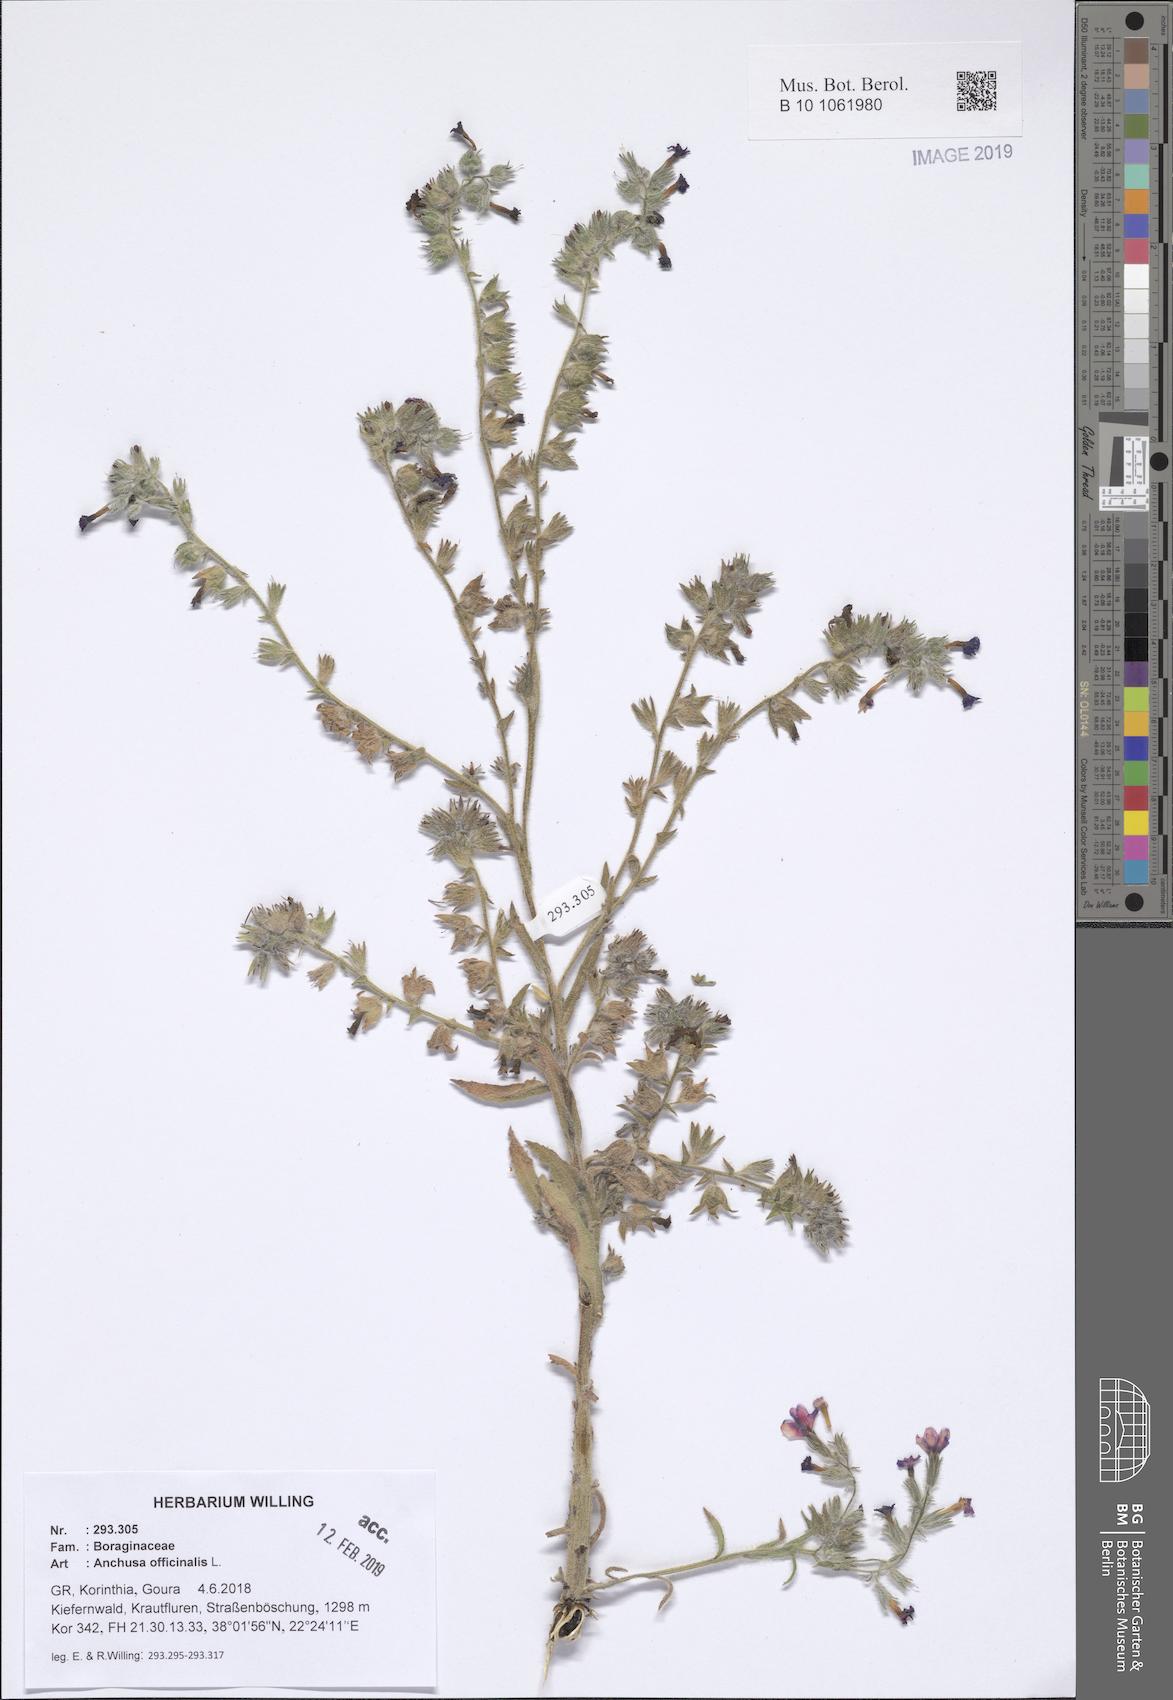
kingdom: Plantae
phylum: Tracheophyta
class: Magnoliopsida
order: Boraginales
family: Boraginaceae
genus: Anchusa
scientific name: Anchusa officinalis
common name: Alkanet
